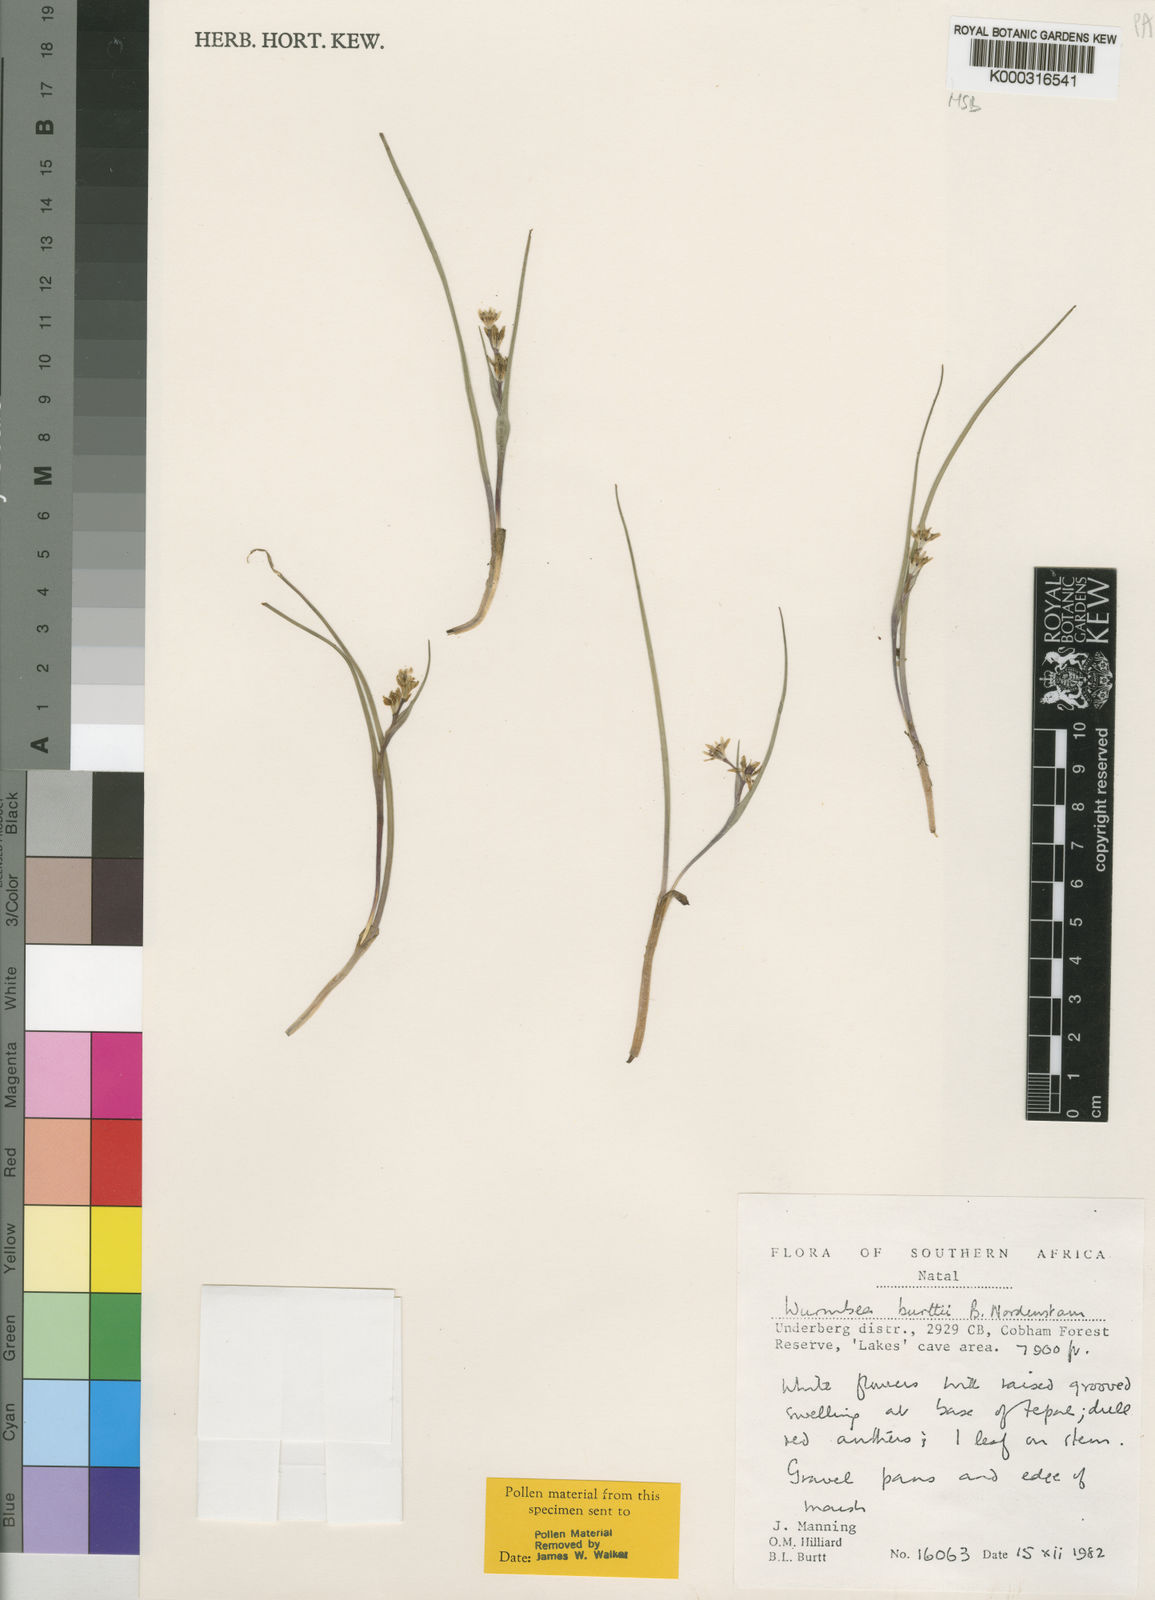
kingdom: Plantae
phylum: Tracheophyta
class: Liliopsida
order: Liliales
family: Colchicaceae
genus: Wurmbea
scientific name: Wurmbea burttii
